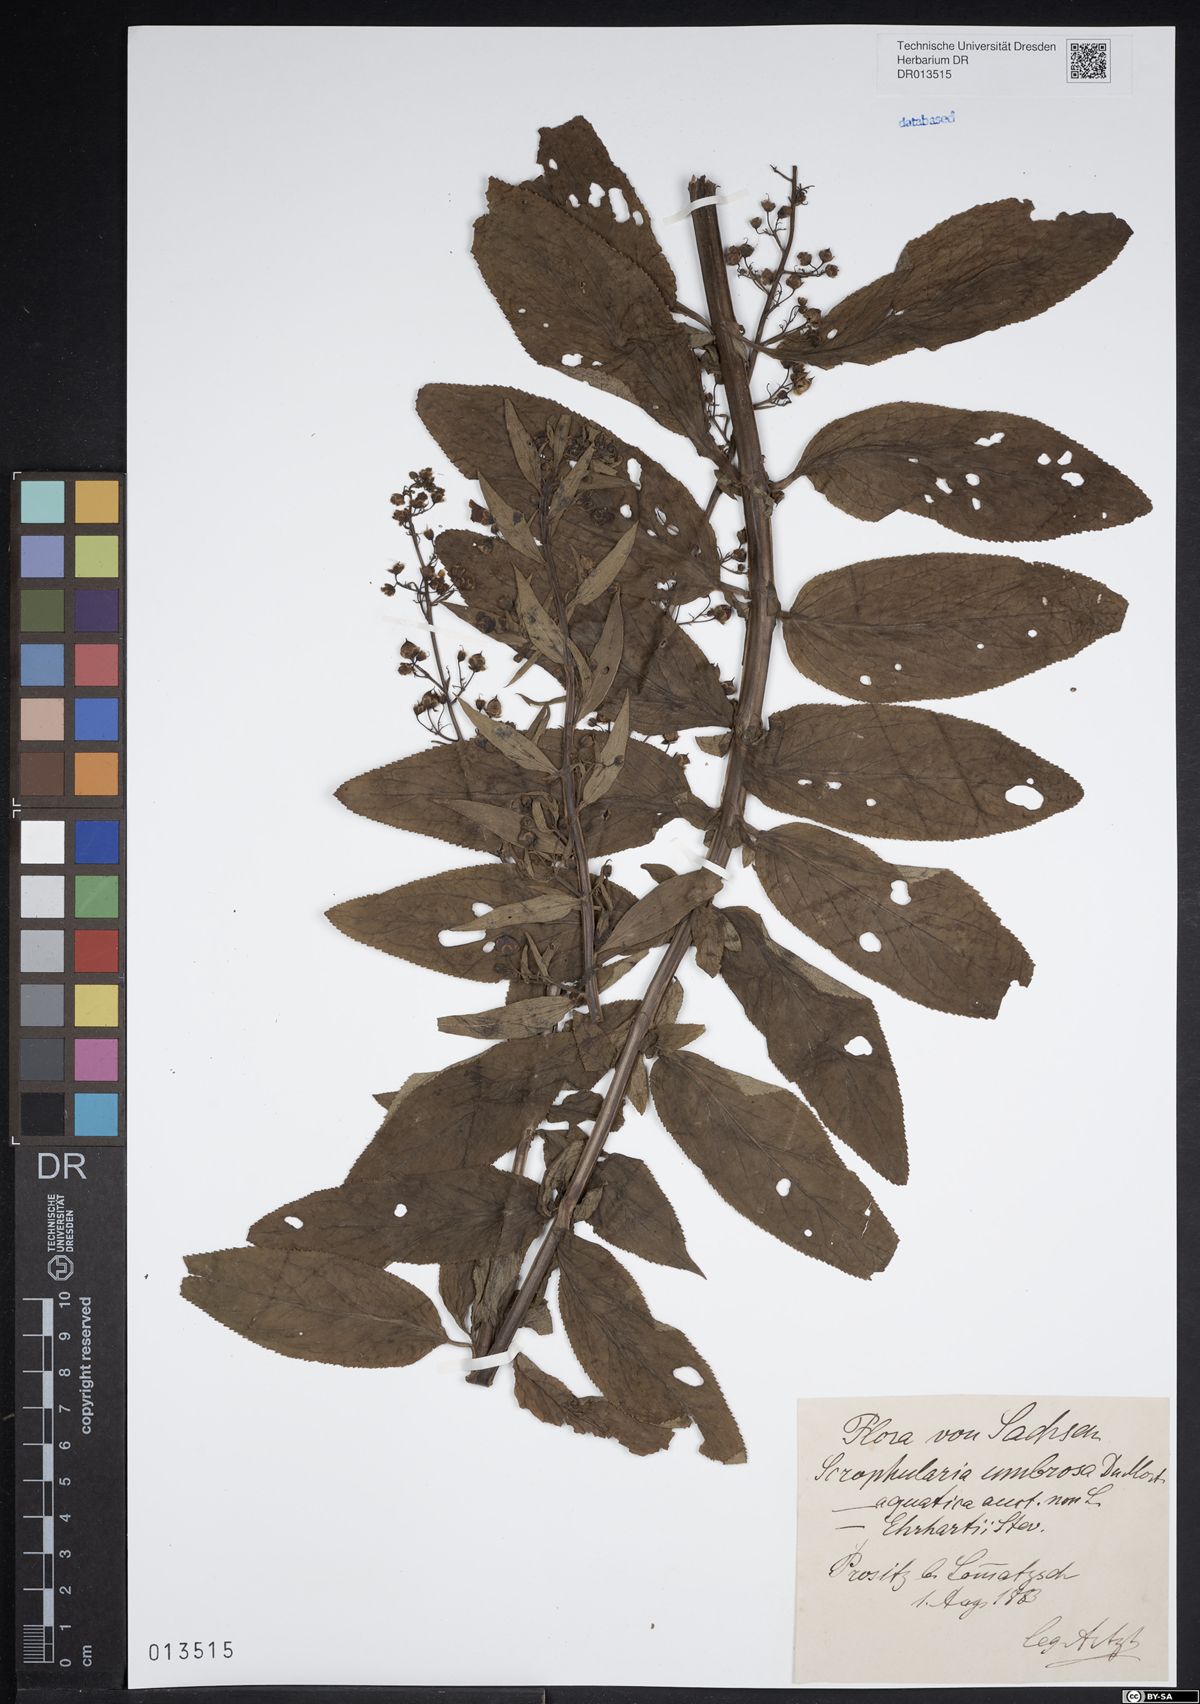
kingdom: Plantae
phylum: Tracheophyta
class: Magnoliopsida
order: Lamiales
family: Scrophulariaceae
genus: Scrophularia
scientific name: Scrophularia umbrosa
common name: Green figwort
